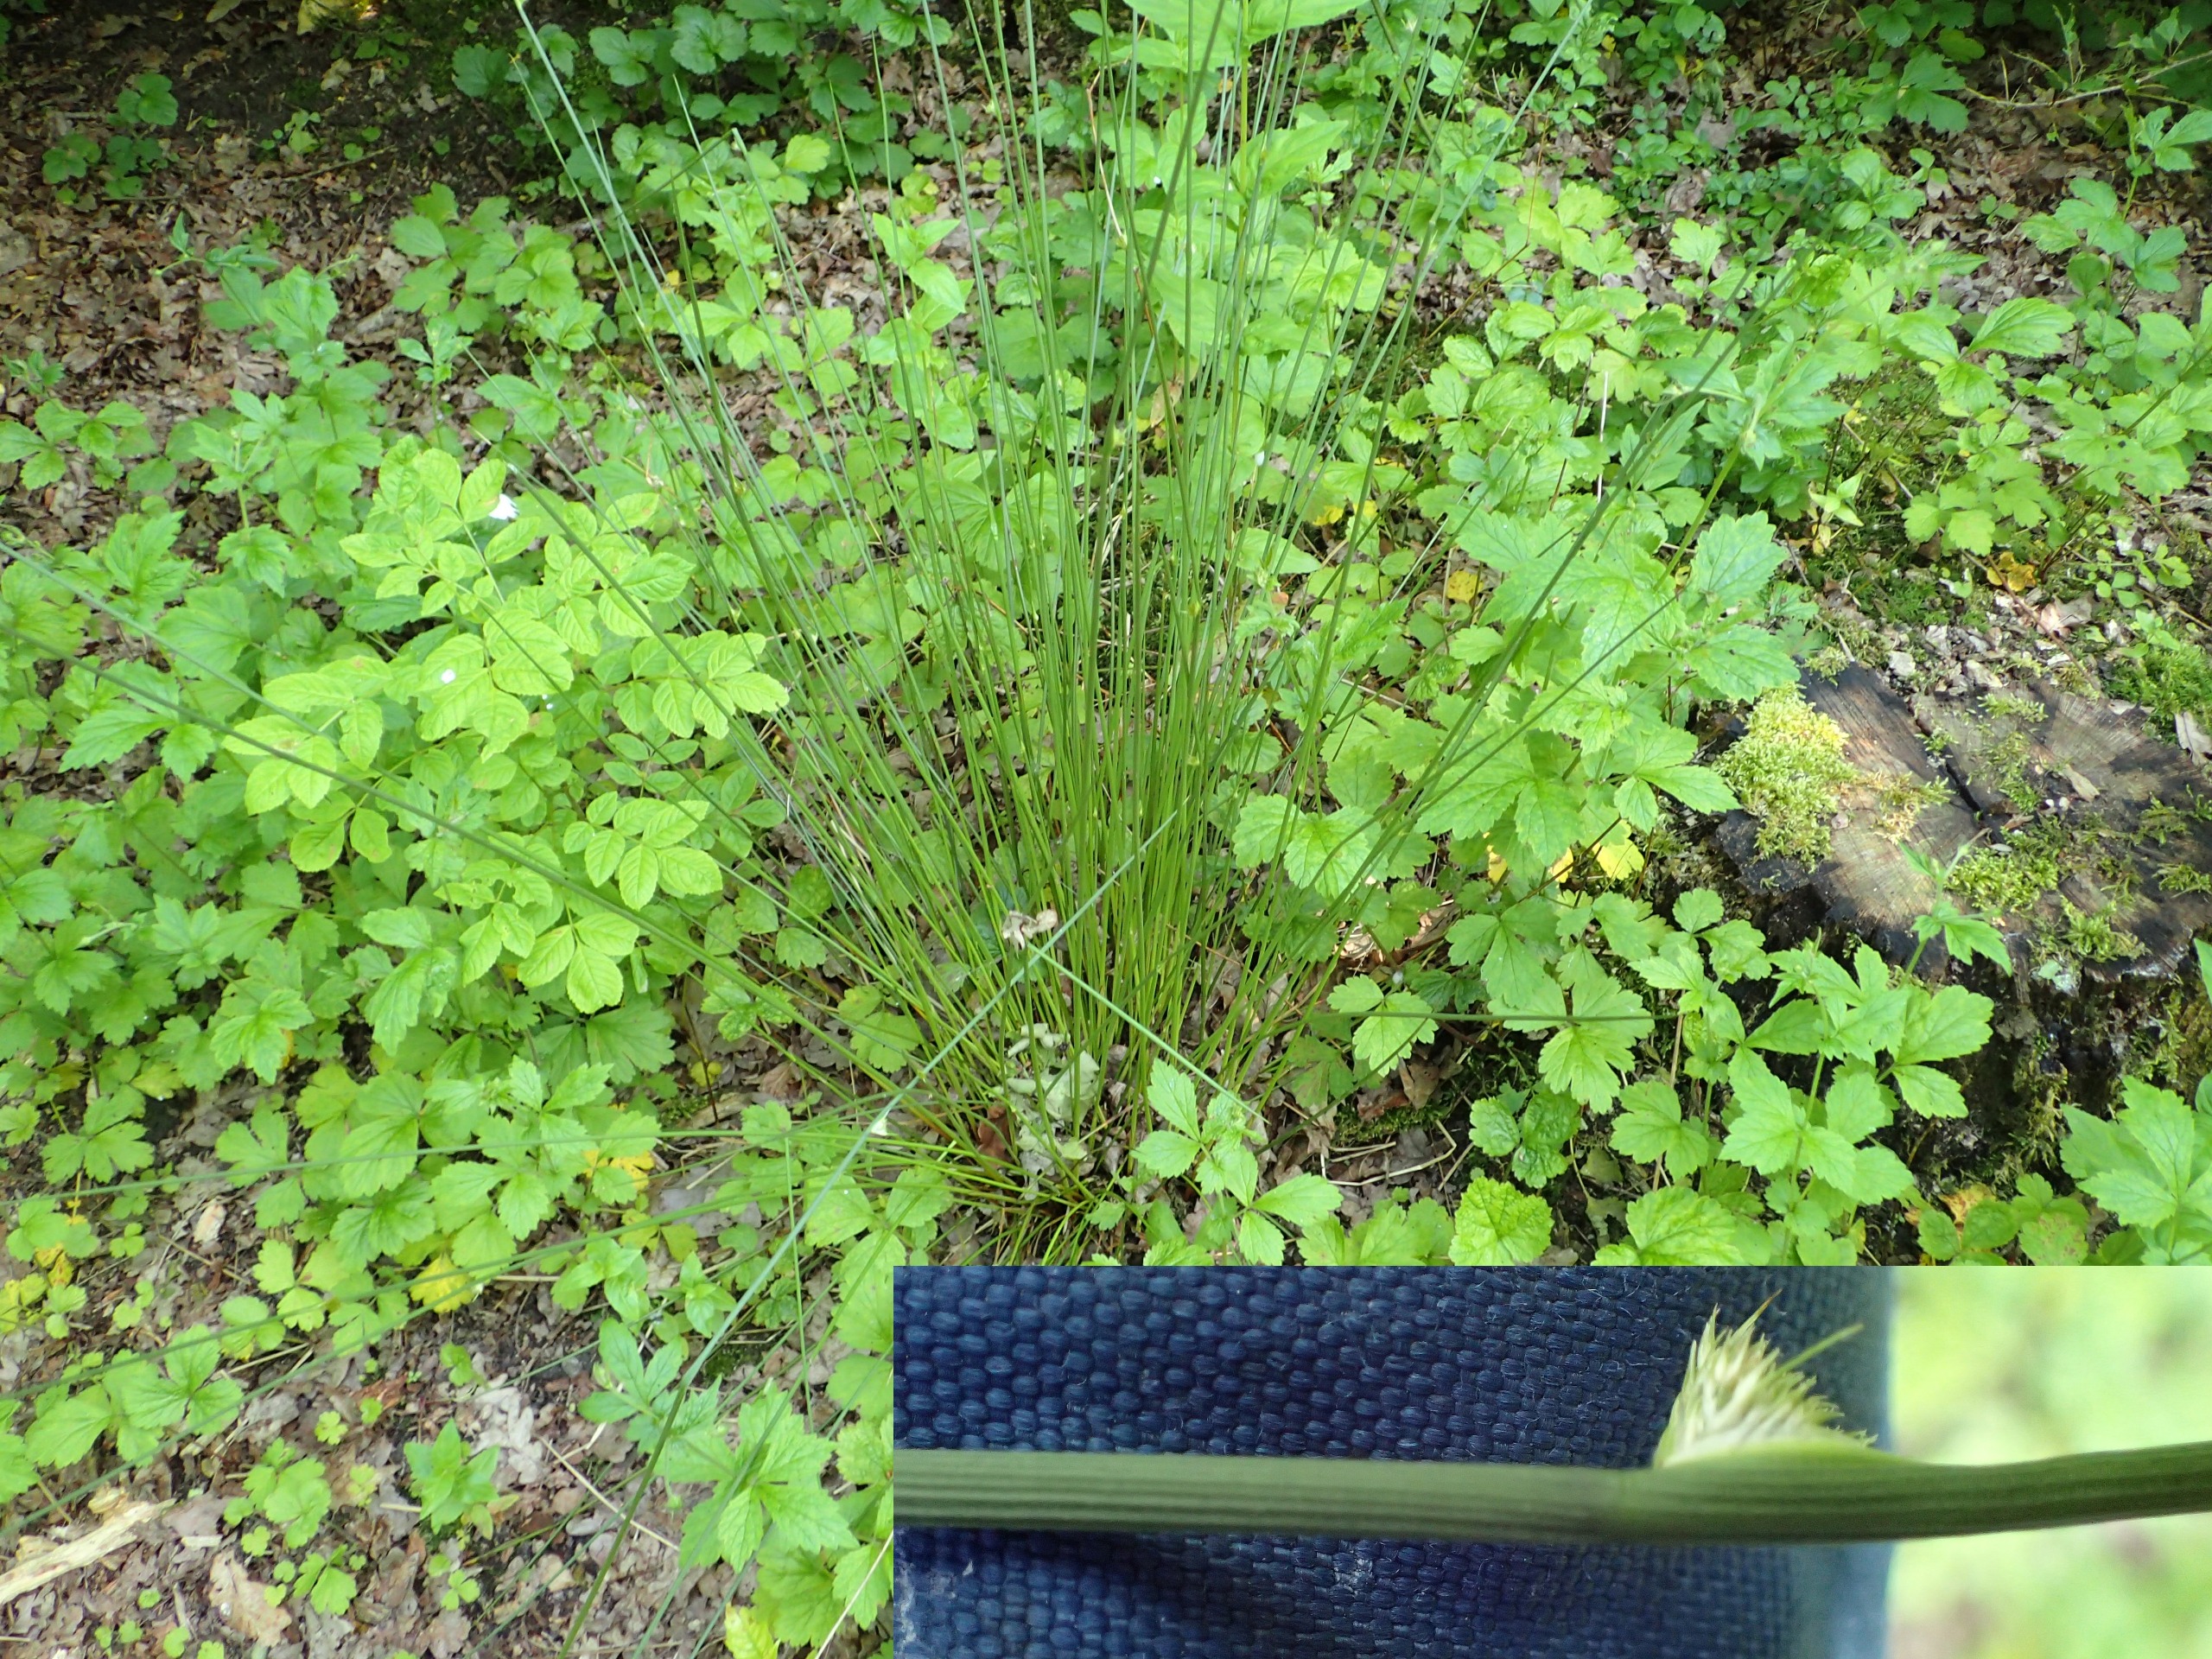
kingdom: Plantae
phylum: Tracheophyta
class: Liliopsida
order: Poales
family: Juncaceae
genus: Juncus
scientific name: Juncus conglomeratus
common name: Knop-siv
